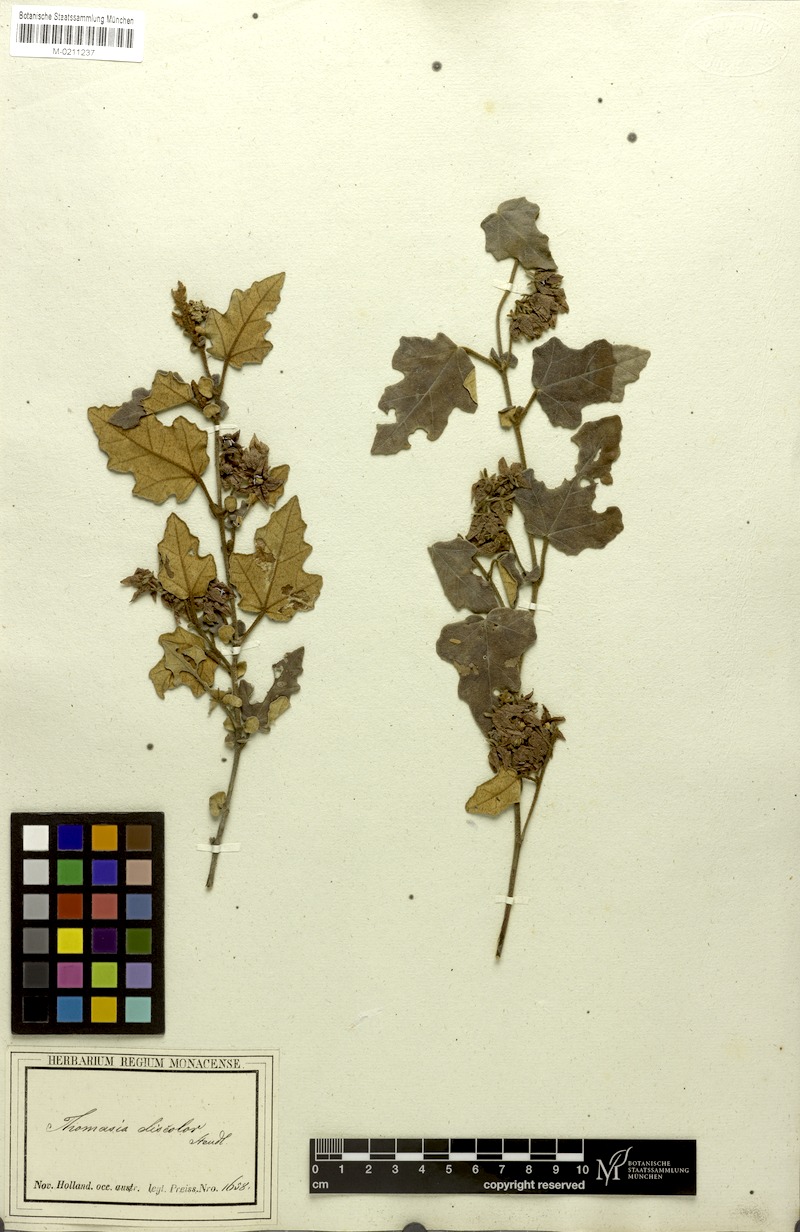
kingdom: Plantae
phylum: Tracheophyta
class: Magnoliopsida
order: Malvales
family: Malvaceae
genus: Thomasia
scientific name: Thomasia discolor
